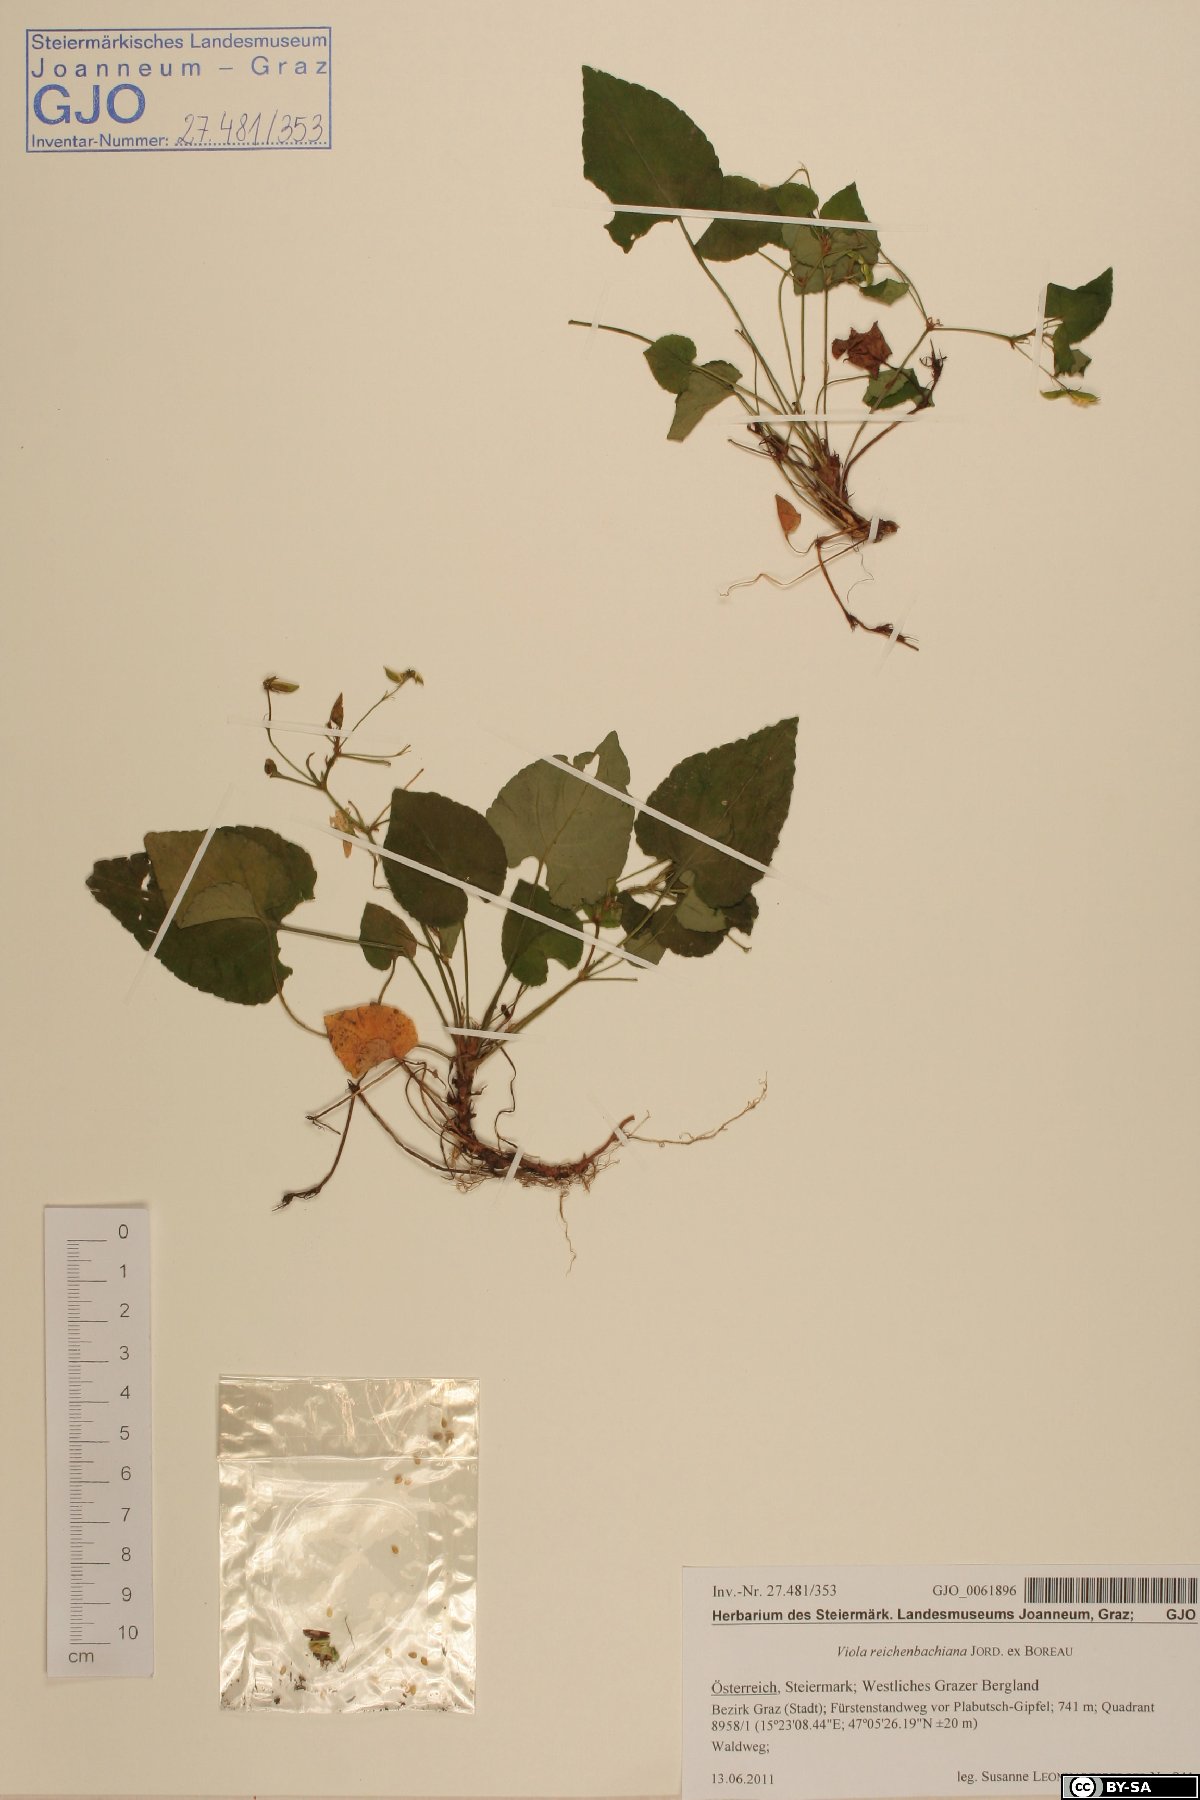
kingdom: Plantae
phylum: Tracheophyta
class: Magnoliopsida
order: Malpighiales
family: Violaceae
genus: Viola
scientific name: Viola reichenbachiana
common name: Early dog-violet
